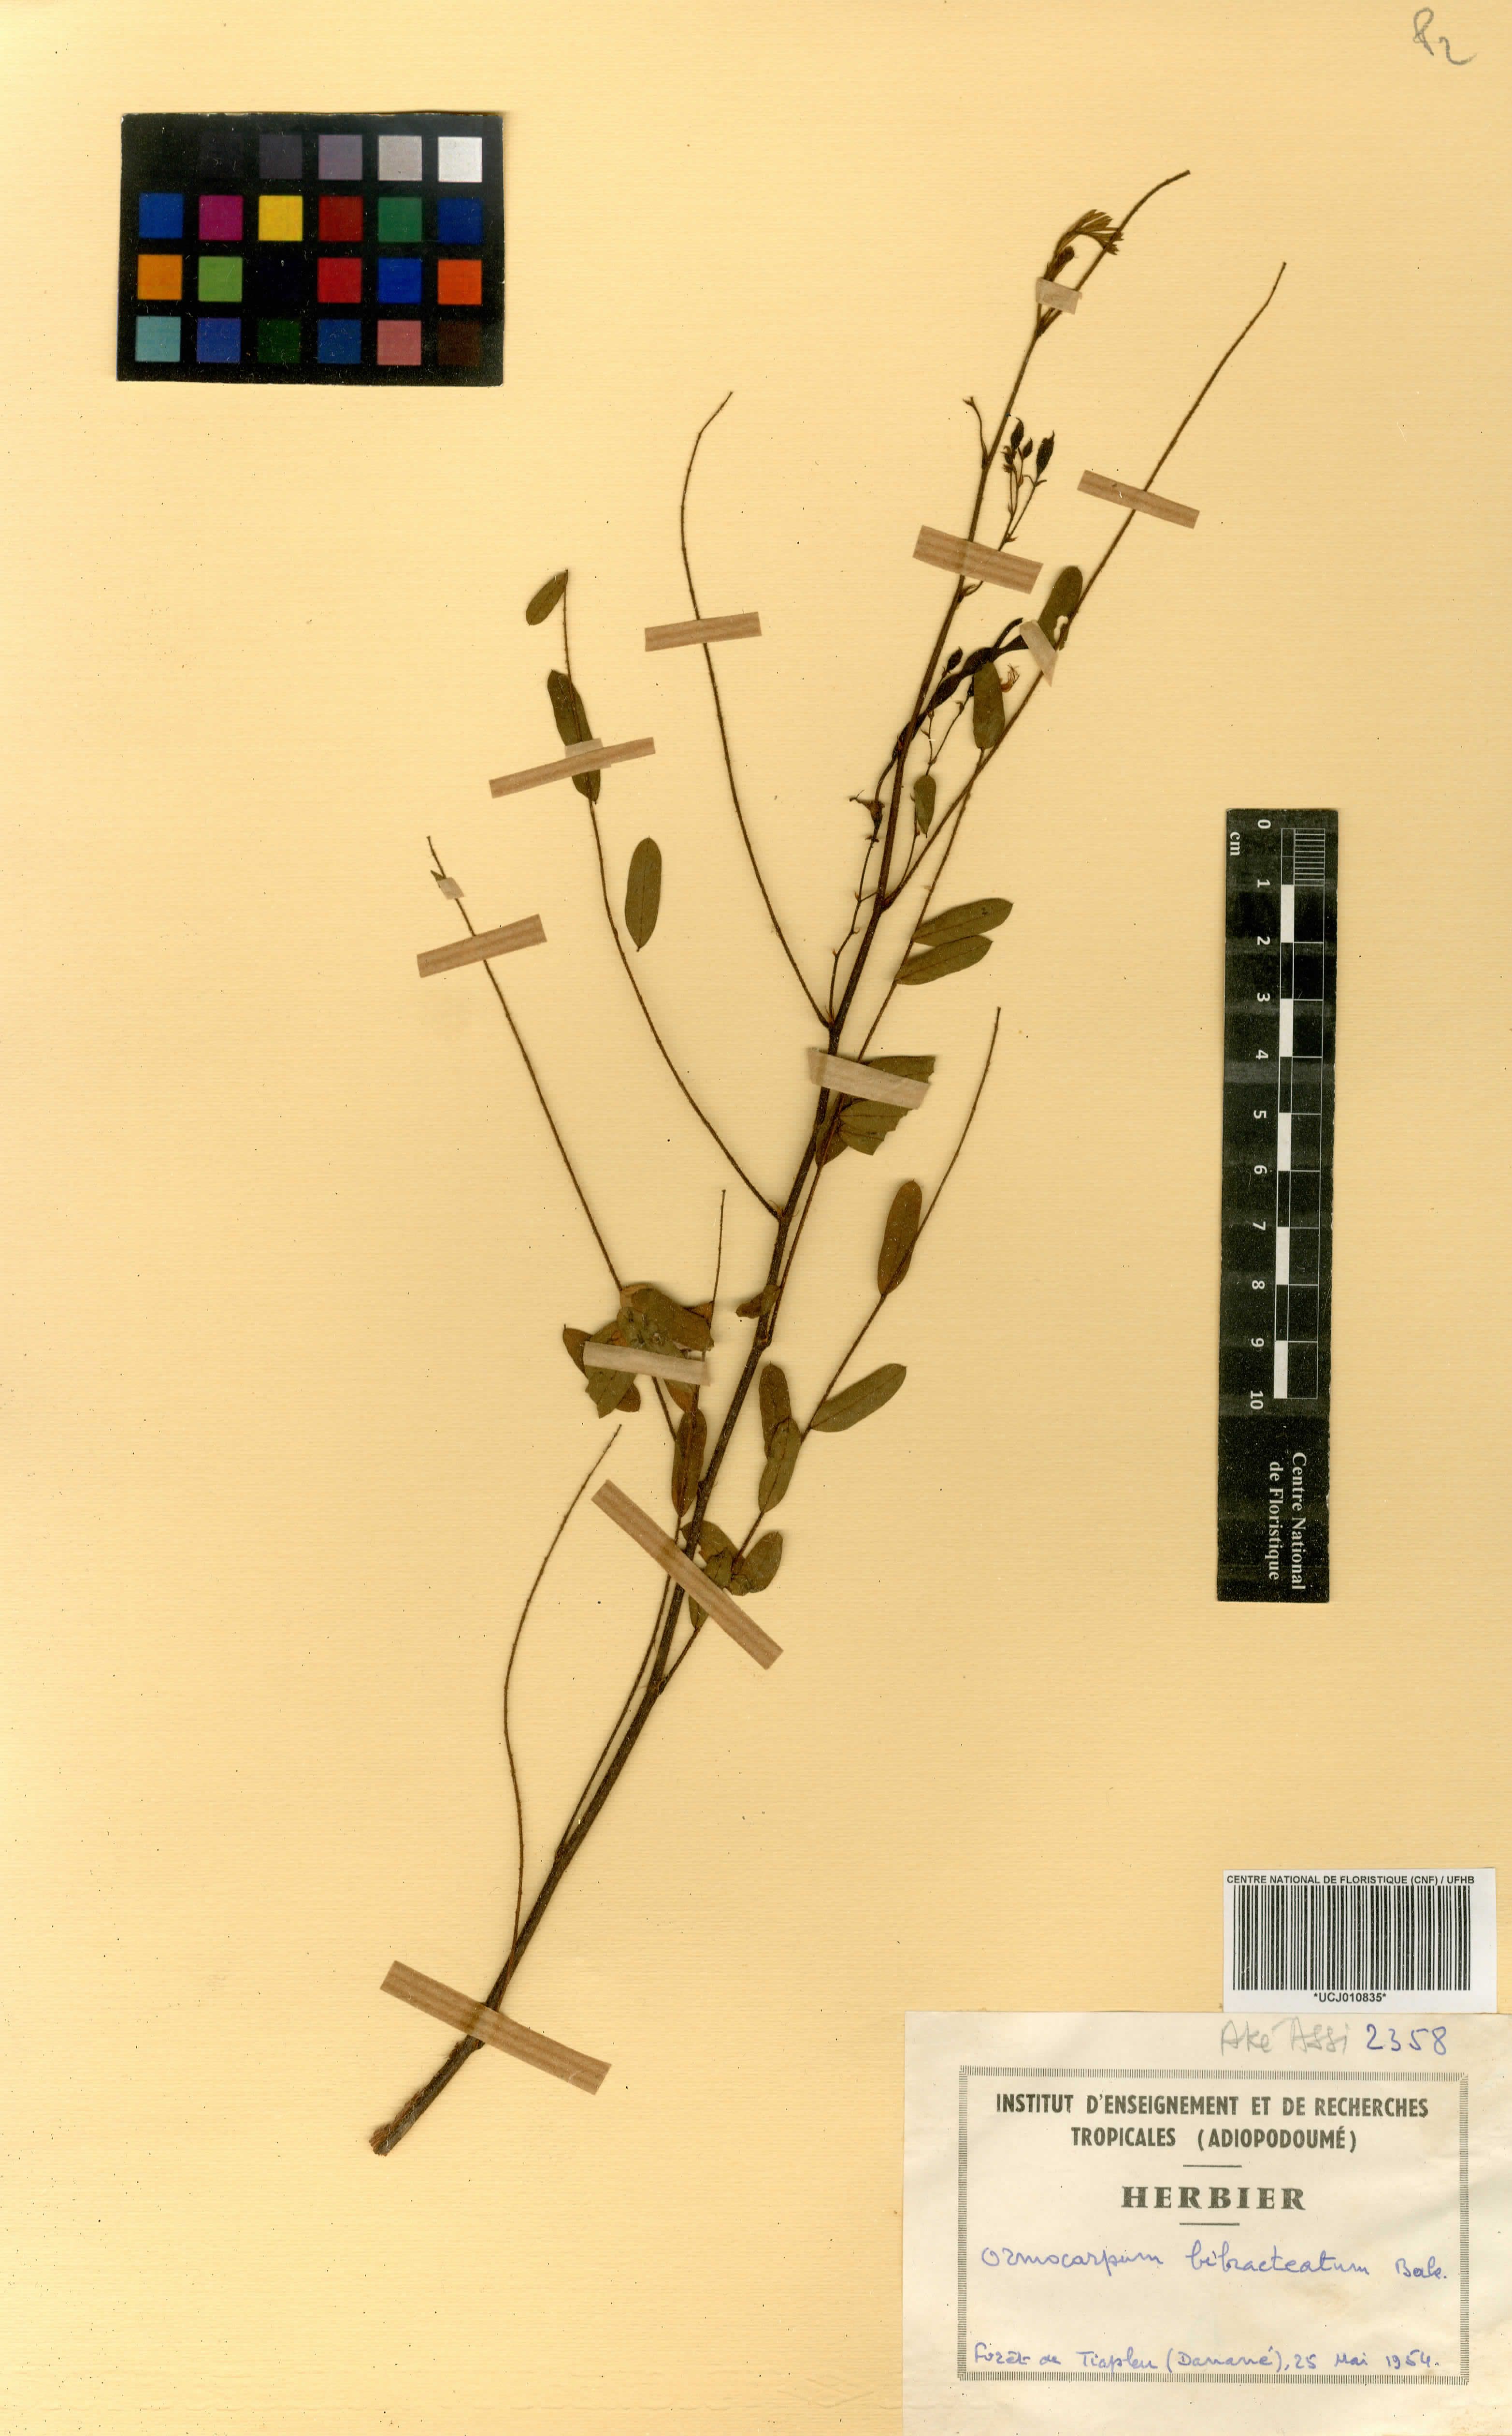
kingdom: Plantae
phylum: Tracheophyta
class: Magnoliopsida
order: Fabales
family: Fabaceae
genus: Ormocarpum
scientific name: Ormocarpum pubescens
